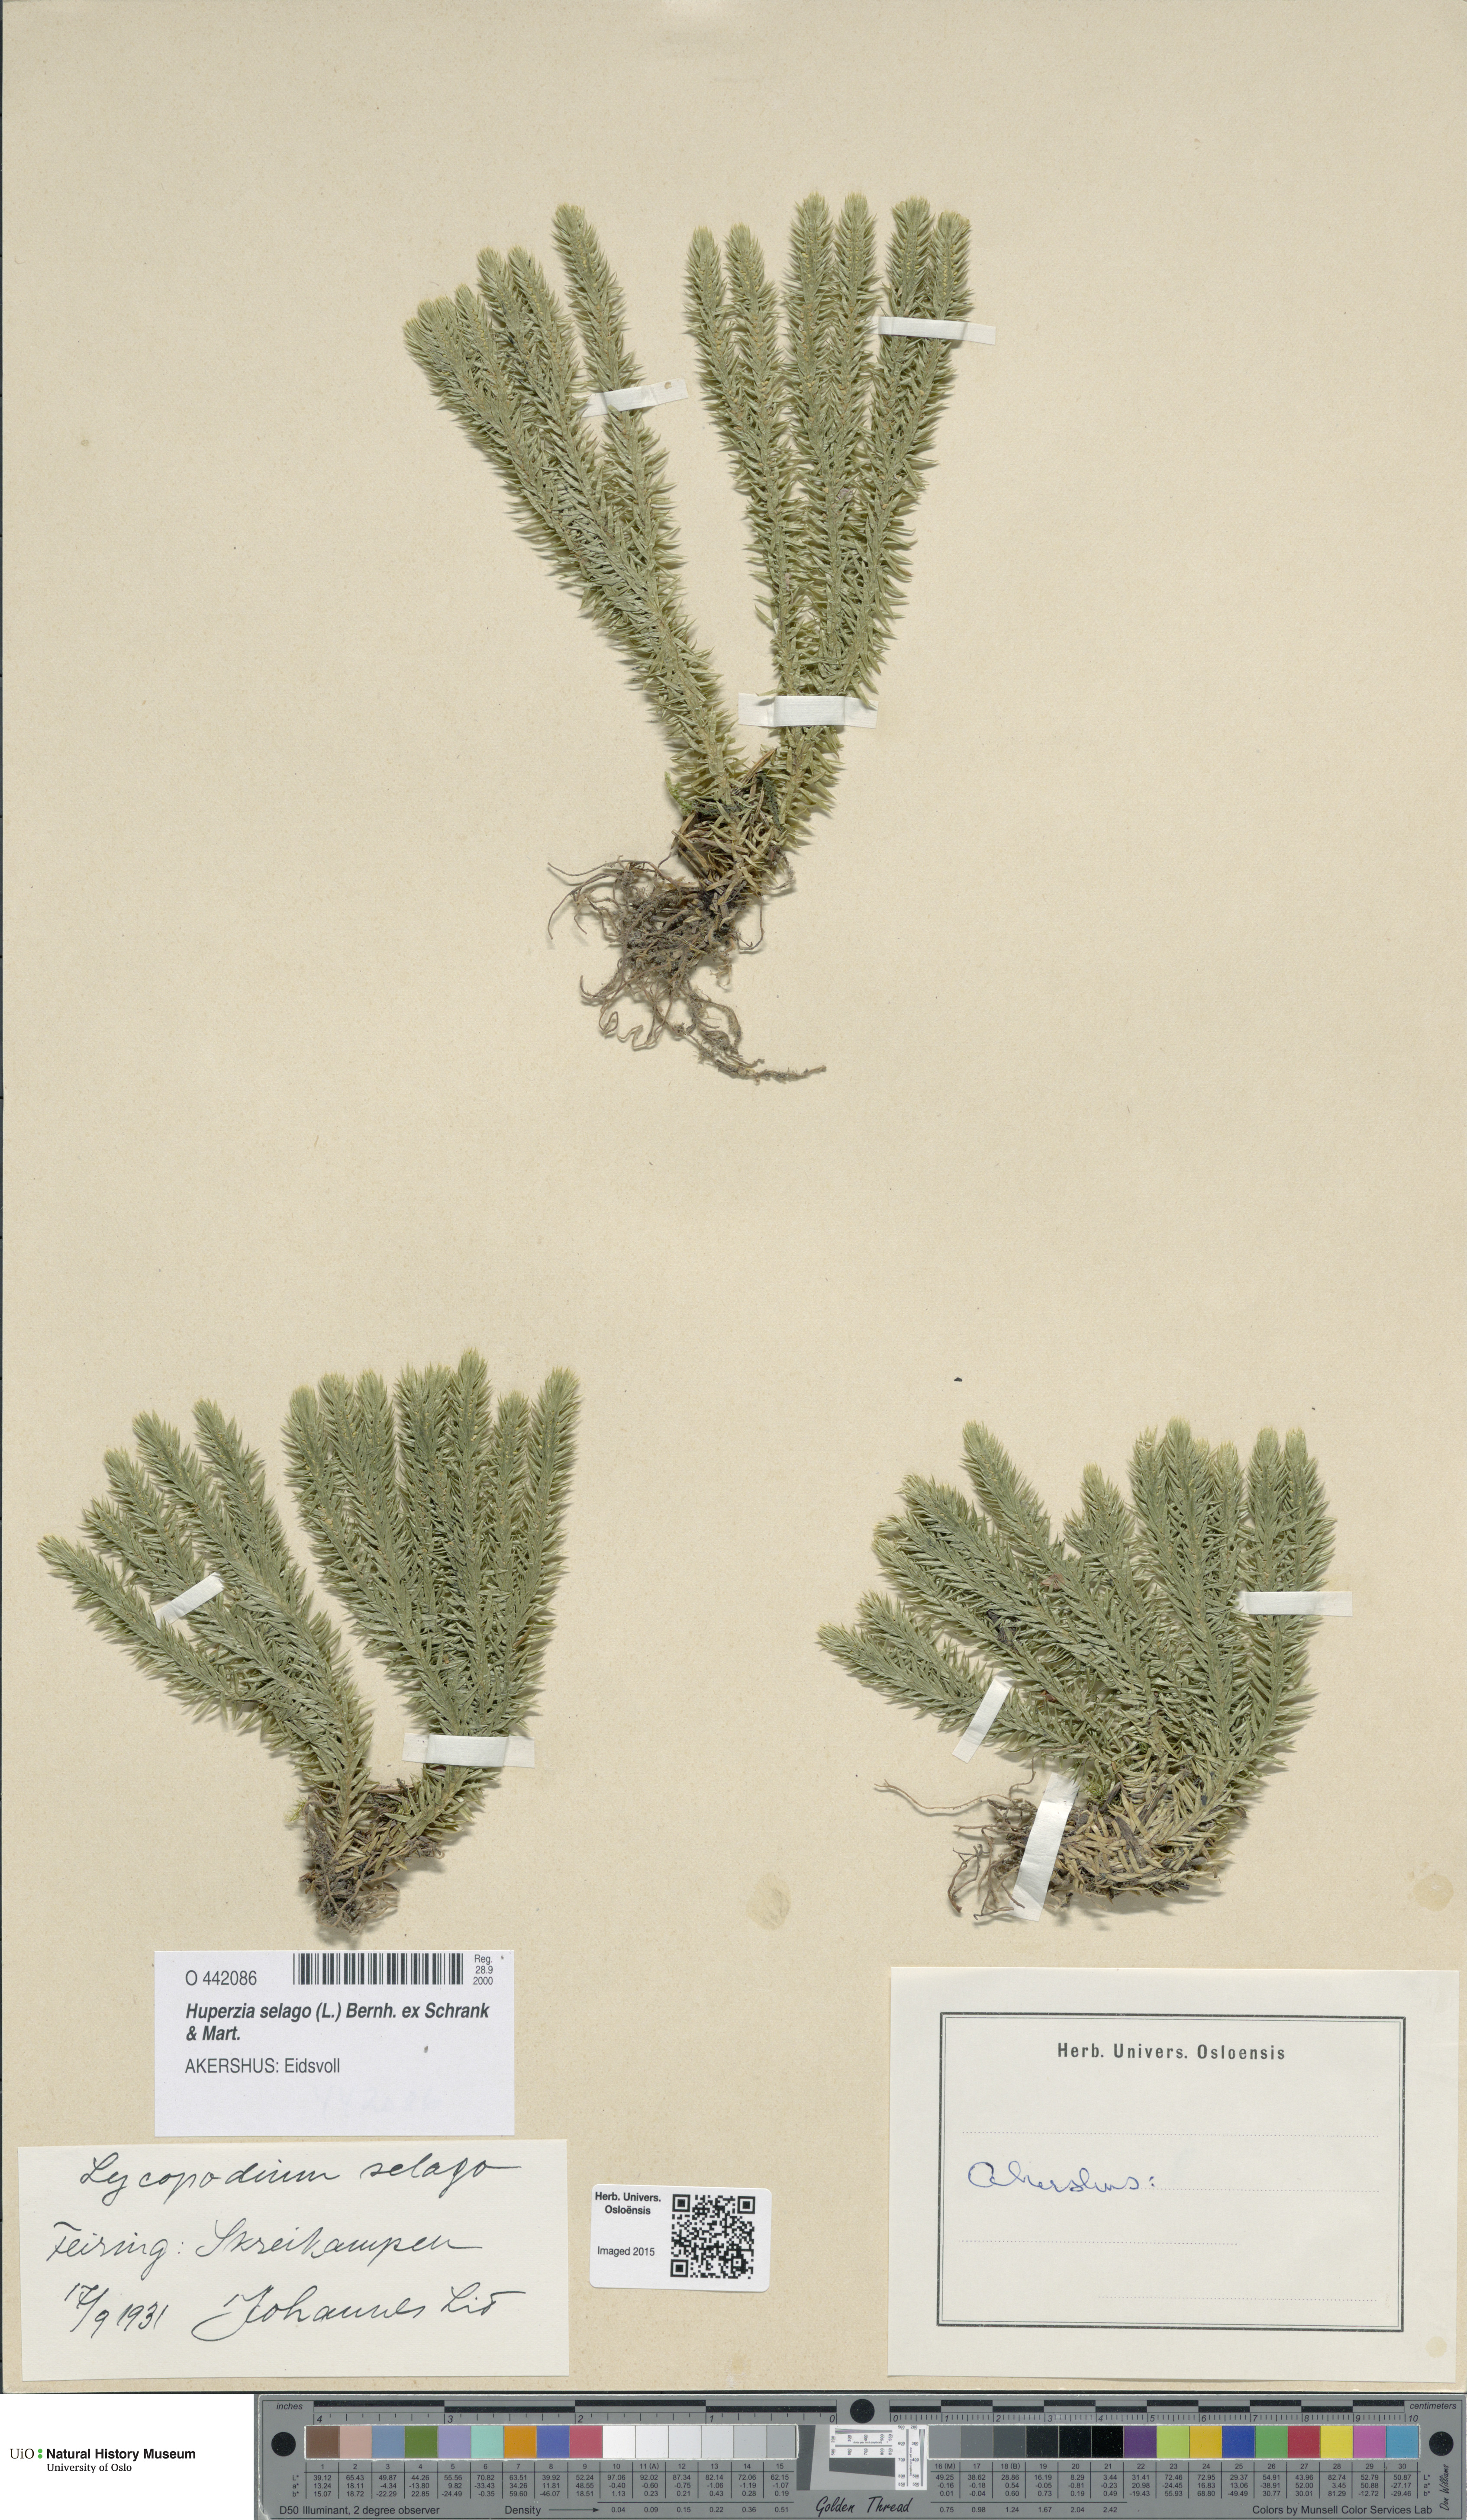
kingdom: Plantae
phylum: Tracheophyta
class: Lycopodiopsida
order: Lycopodiales
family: Lycopodiaceae
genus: Huperzia
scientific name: Huperzia selago
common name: Northern firmoss
